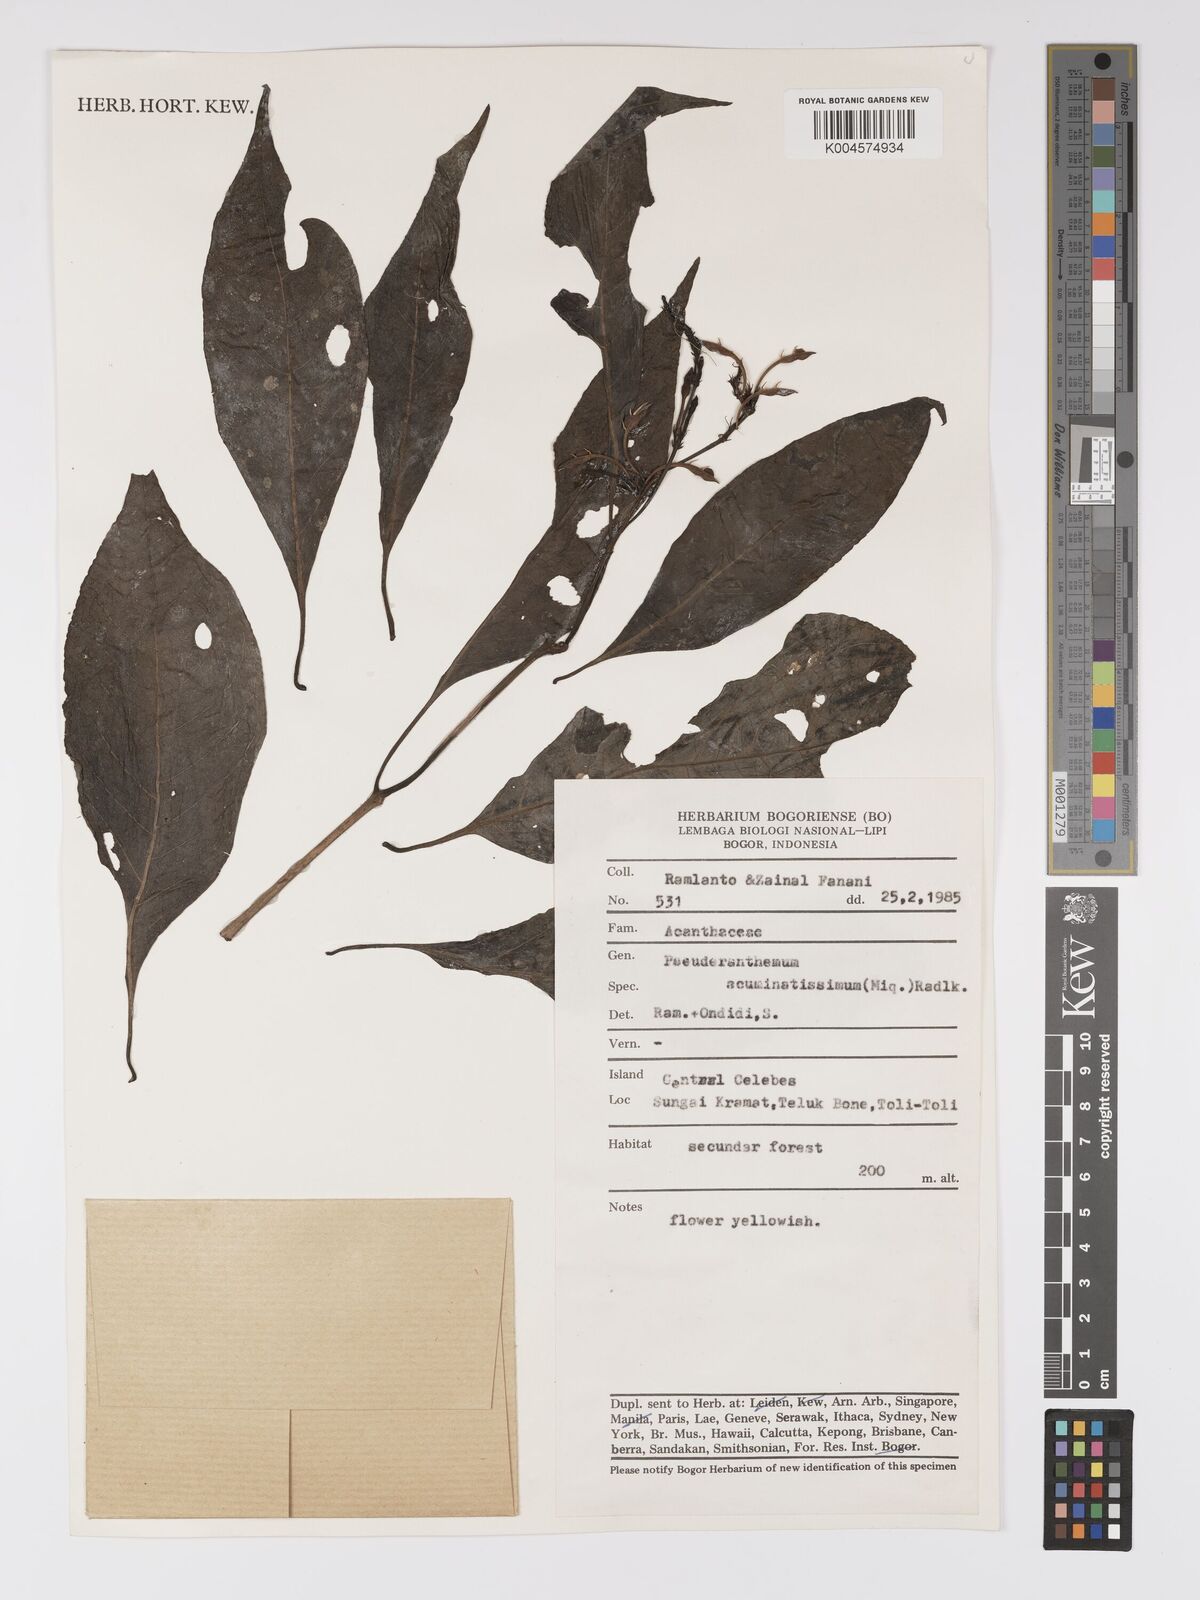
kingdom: Plantae
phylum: Tracheophyta
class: Magnoliopsida
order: Lamiales
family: Acanthaceae
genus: Pseuderanthemum
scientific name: Pseuderanthemum acuminatissimum
